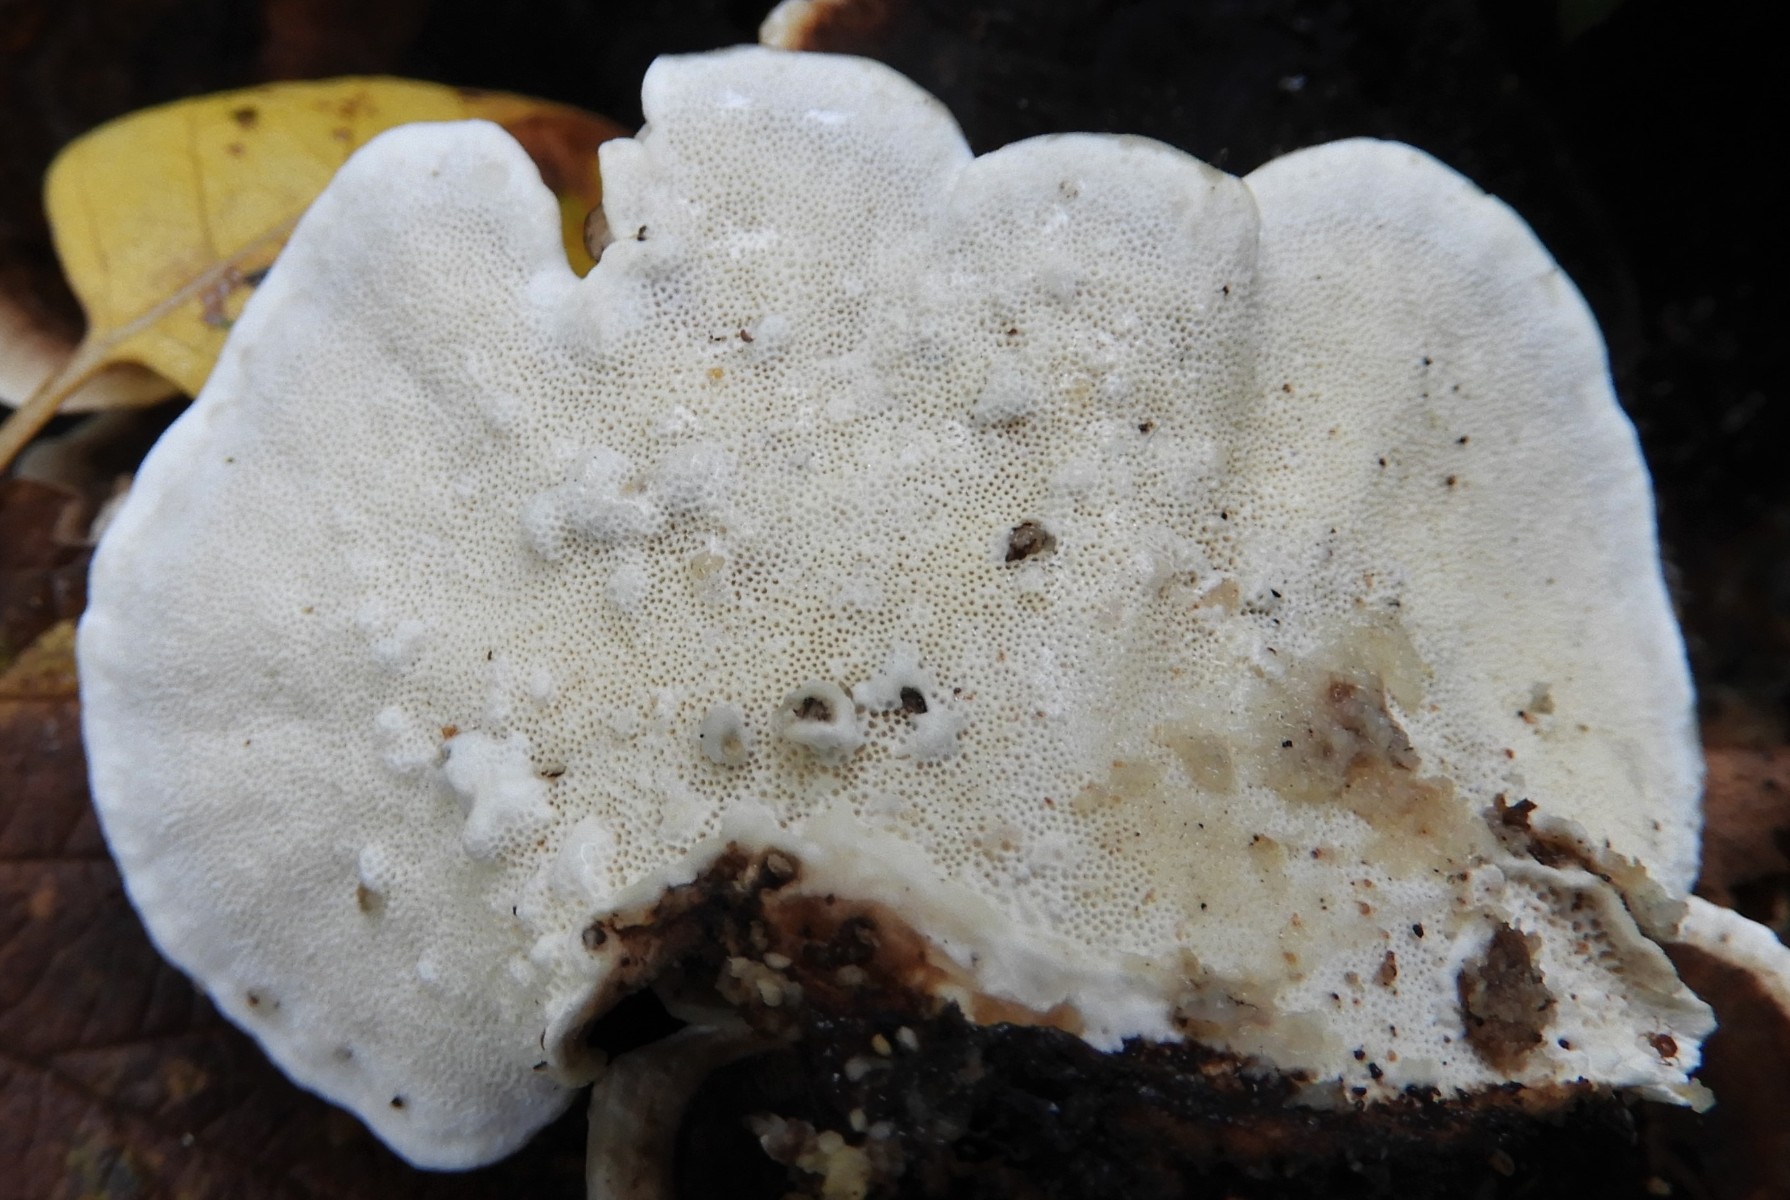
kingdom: Fungi
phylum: Basidiomycota
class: Agaricomycetes
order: Polyporales
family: Polyporaceae
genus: Trametes
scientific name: Trametes versicolor
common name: broget læderporesvamp
